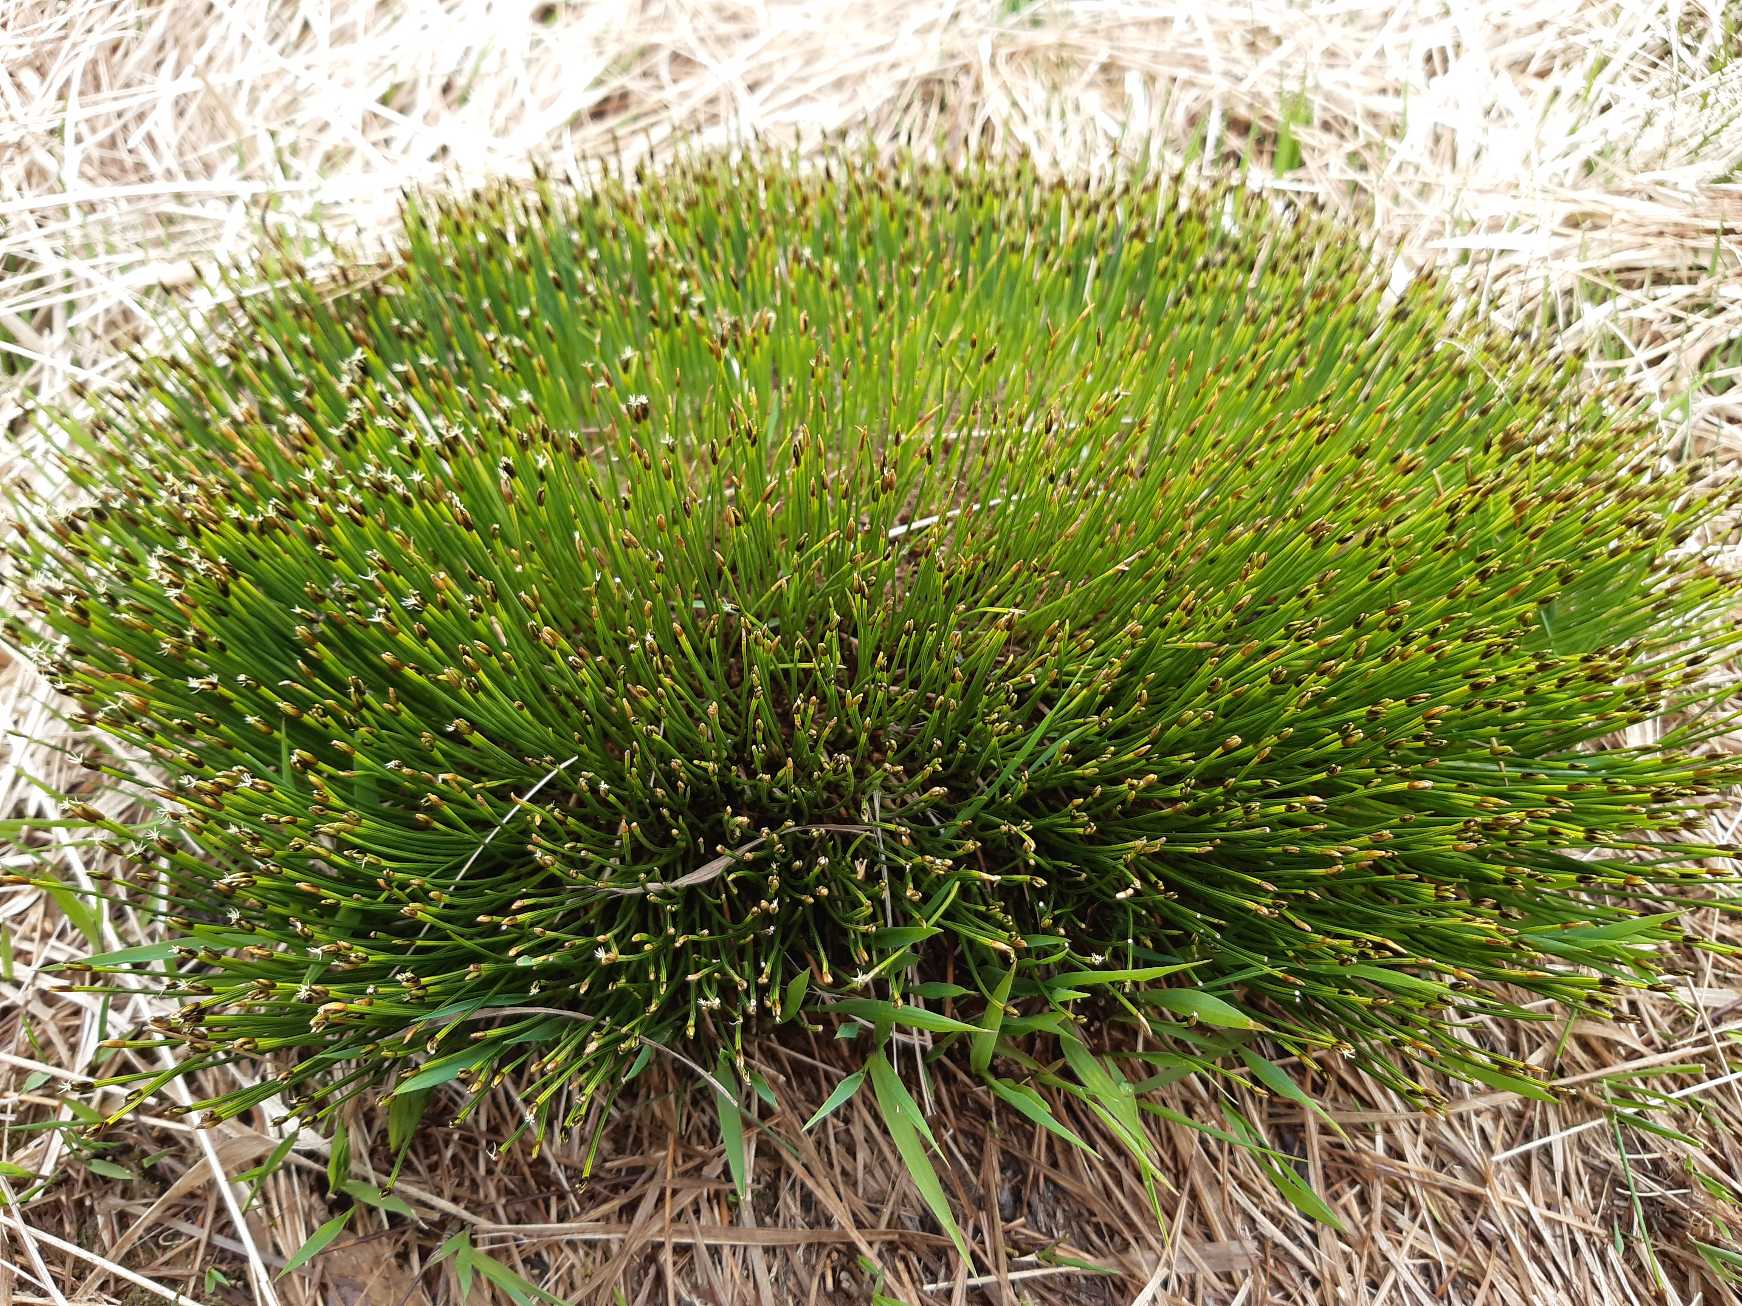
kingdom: Plantae
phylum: Tracheophyta
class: Liliopsida
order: Poales
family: Cyperaceae
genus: Trichophorum
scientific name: Trichophorum cespitosum
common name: Tuekogleaks
